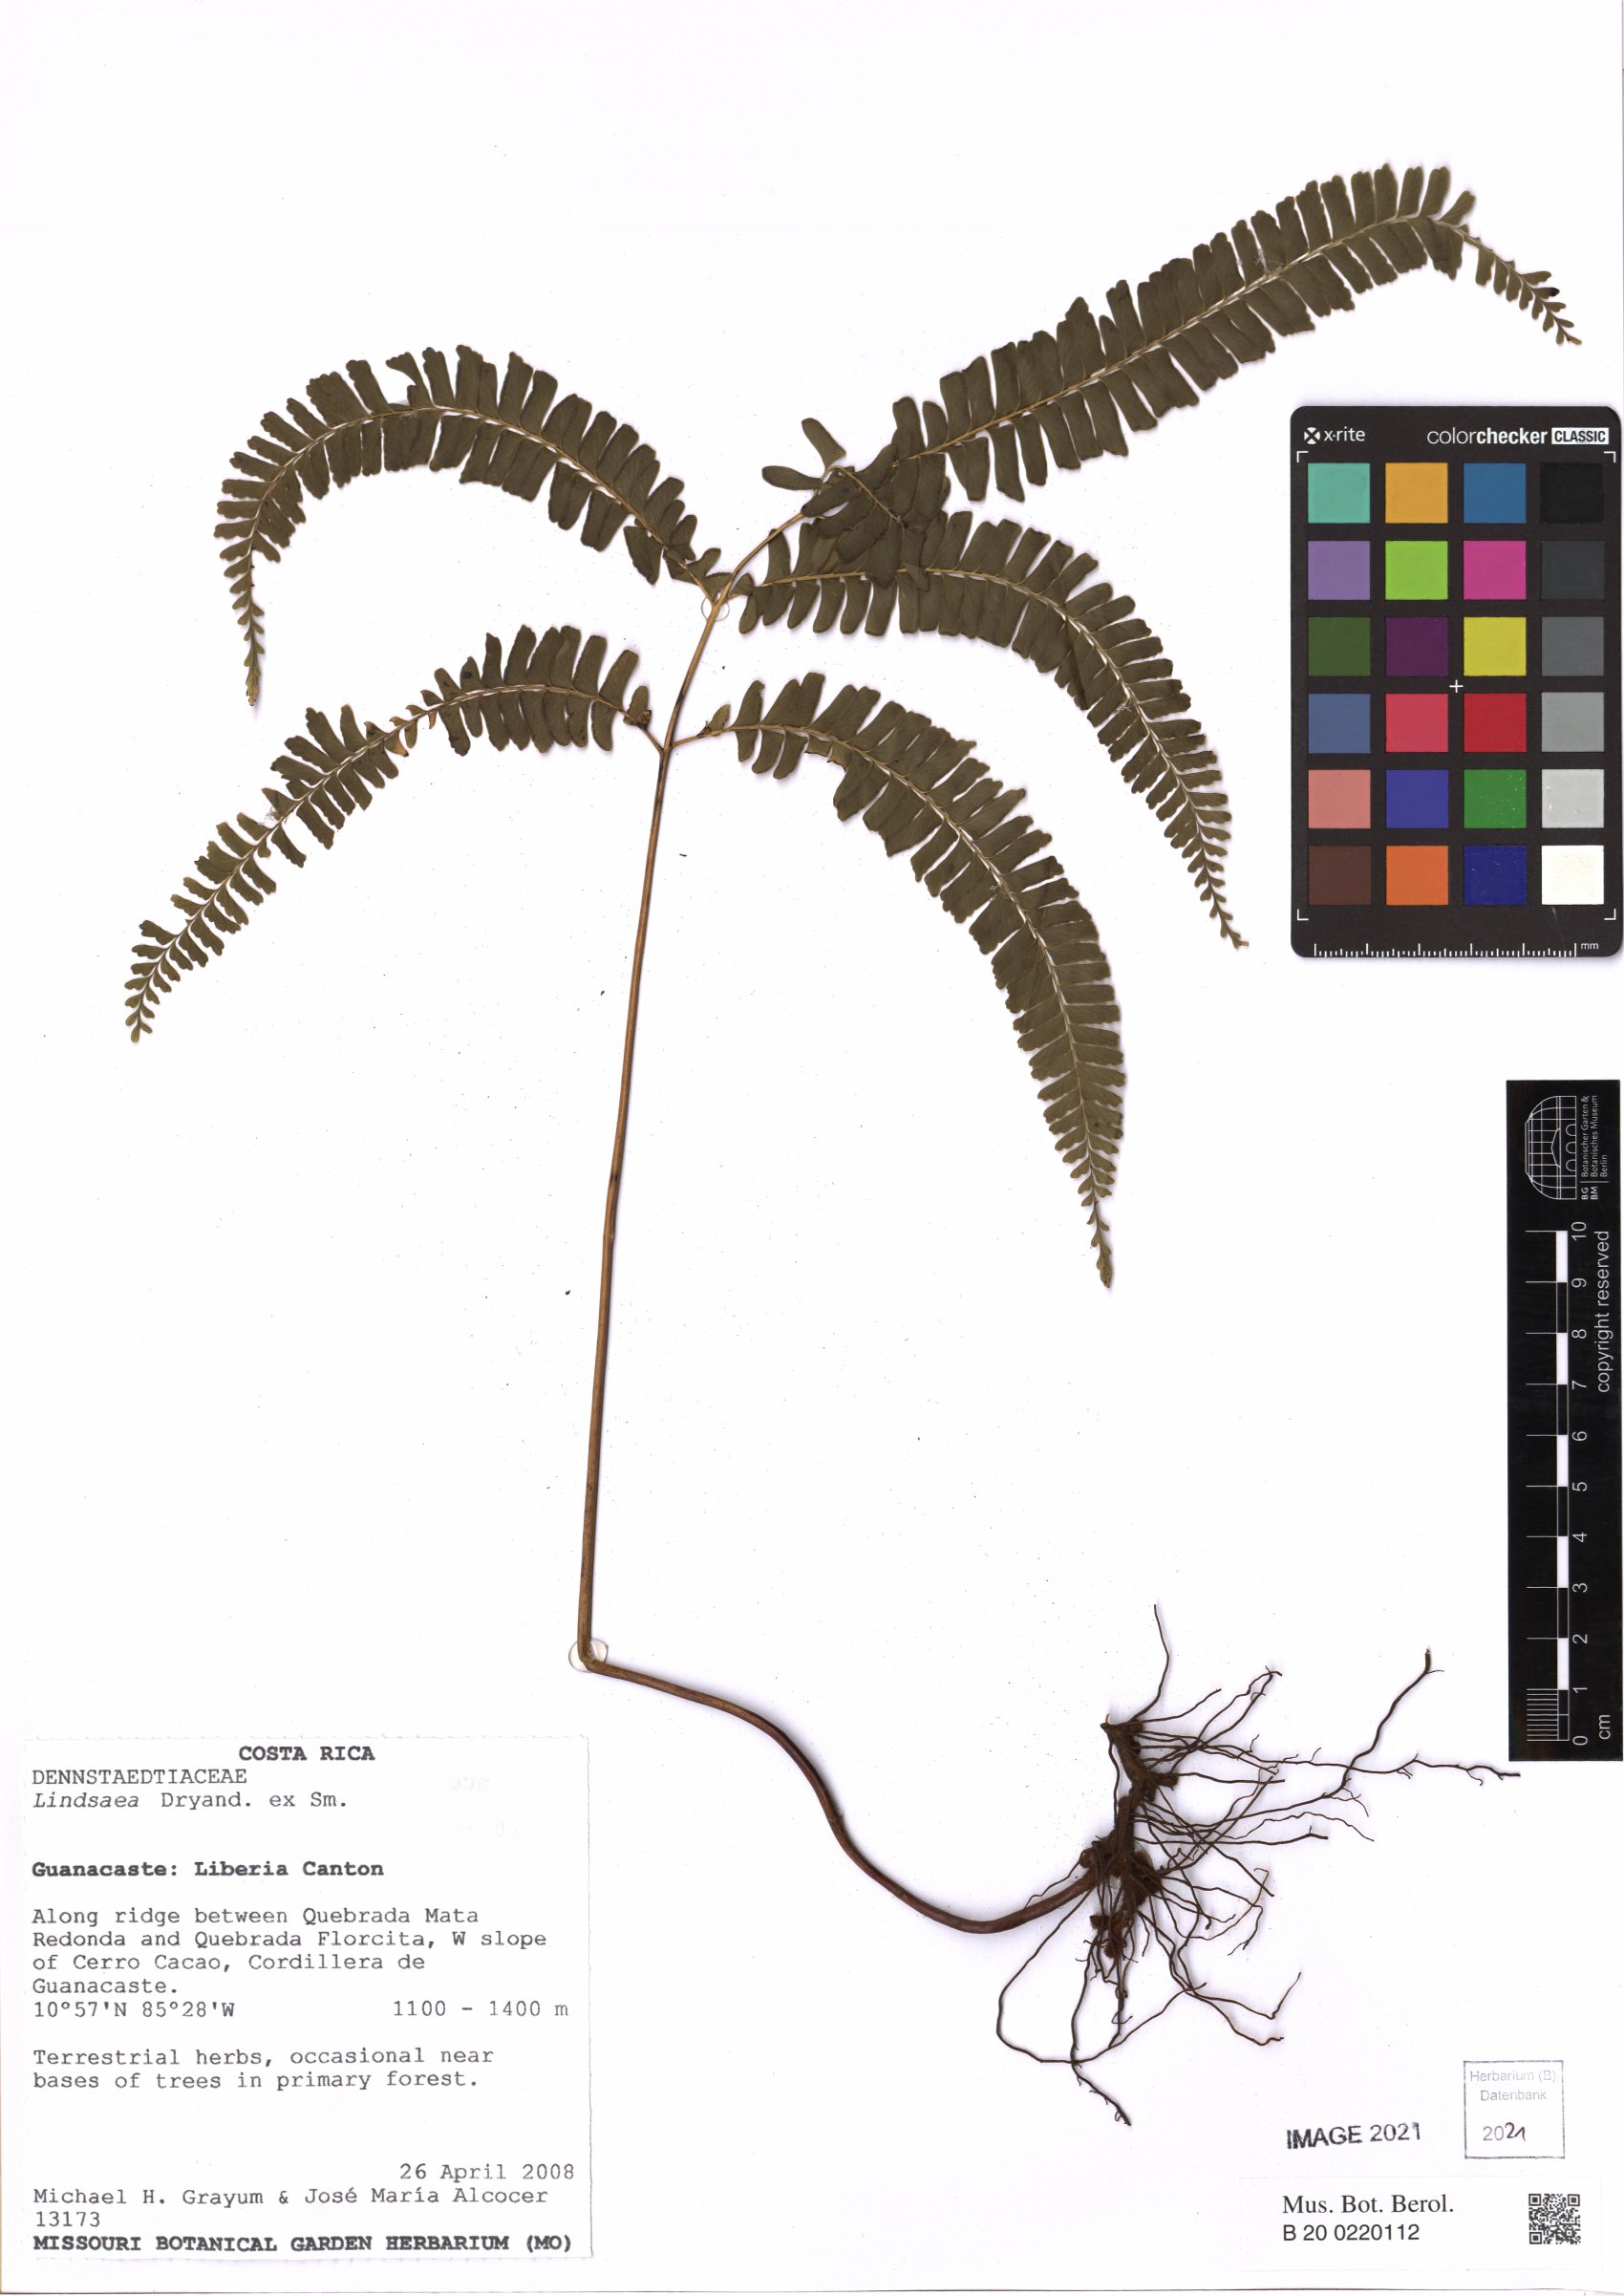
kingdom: Plantae
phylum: Tracheophyta
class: Polypodiopsida
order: Polypodiales
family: Lindsaeaceae
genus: Lindsaea
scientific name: Lindsaea
